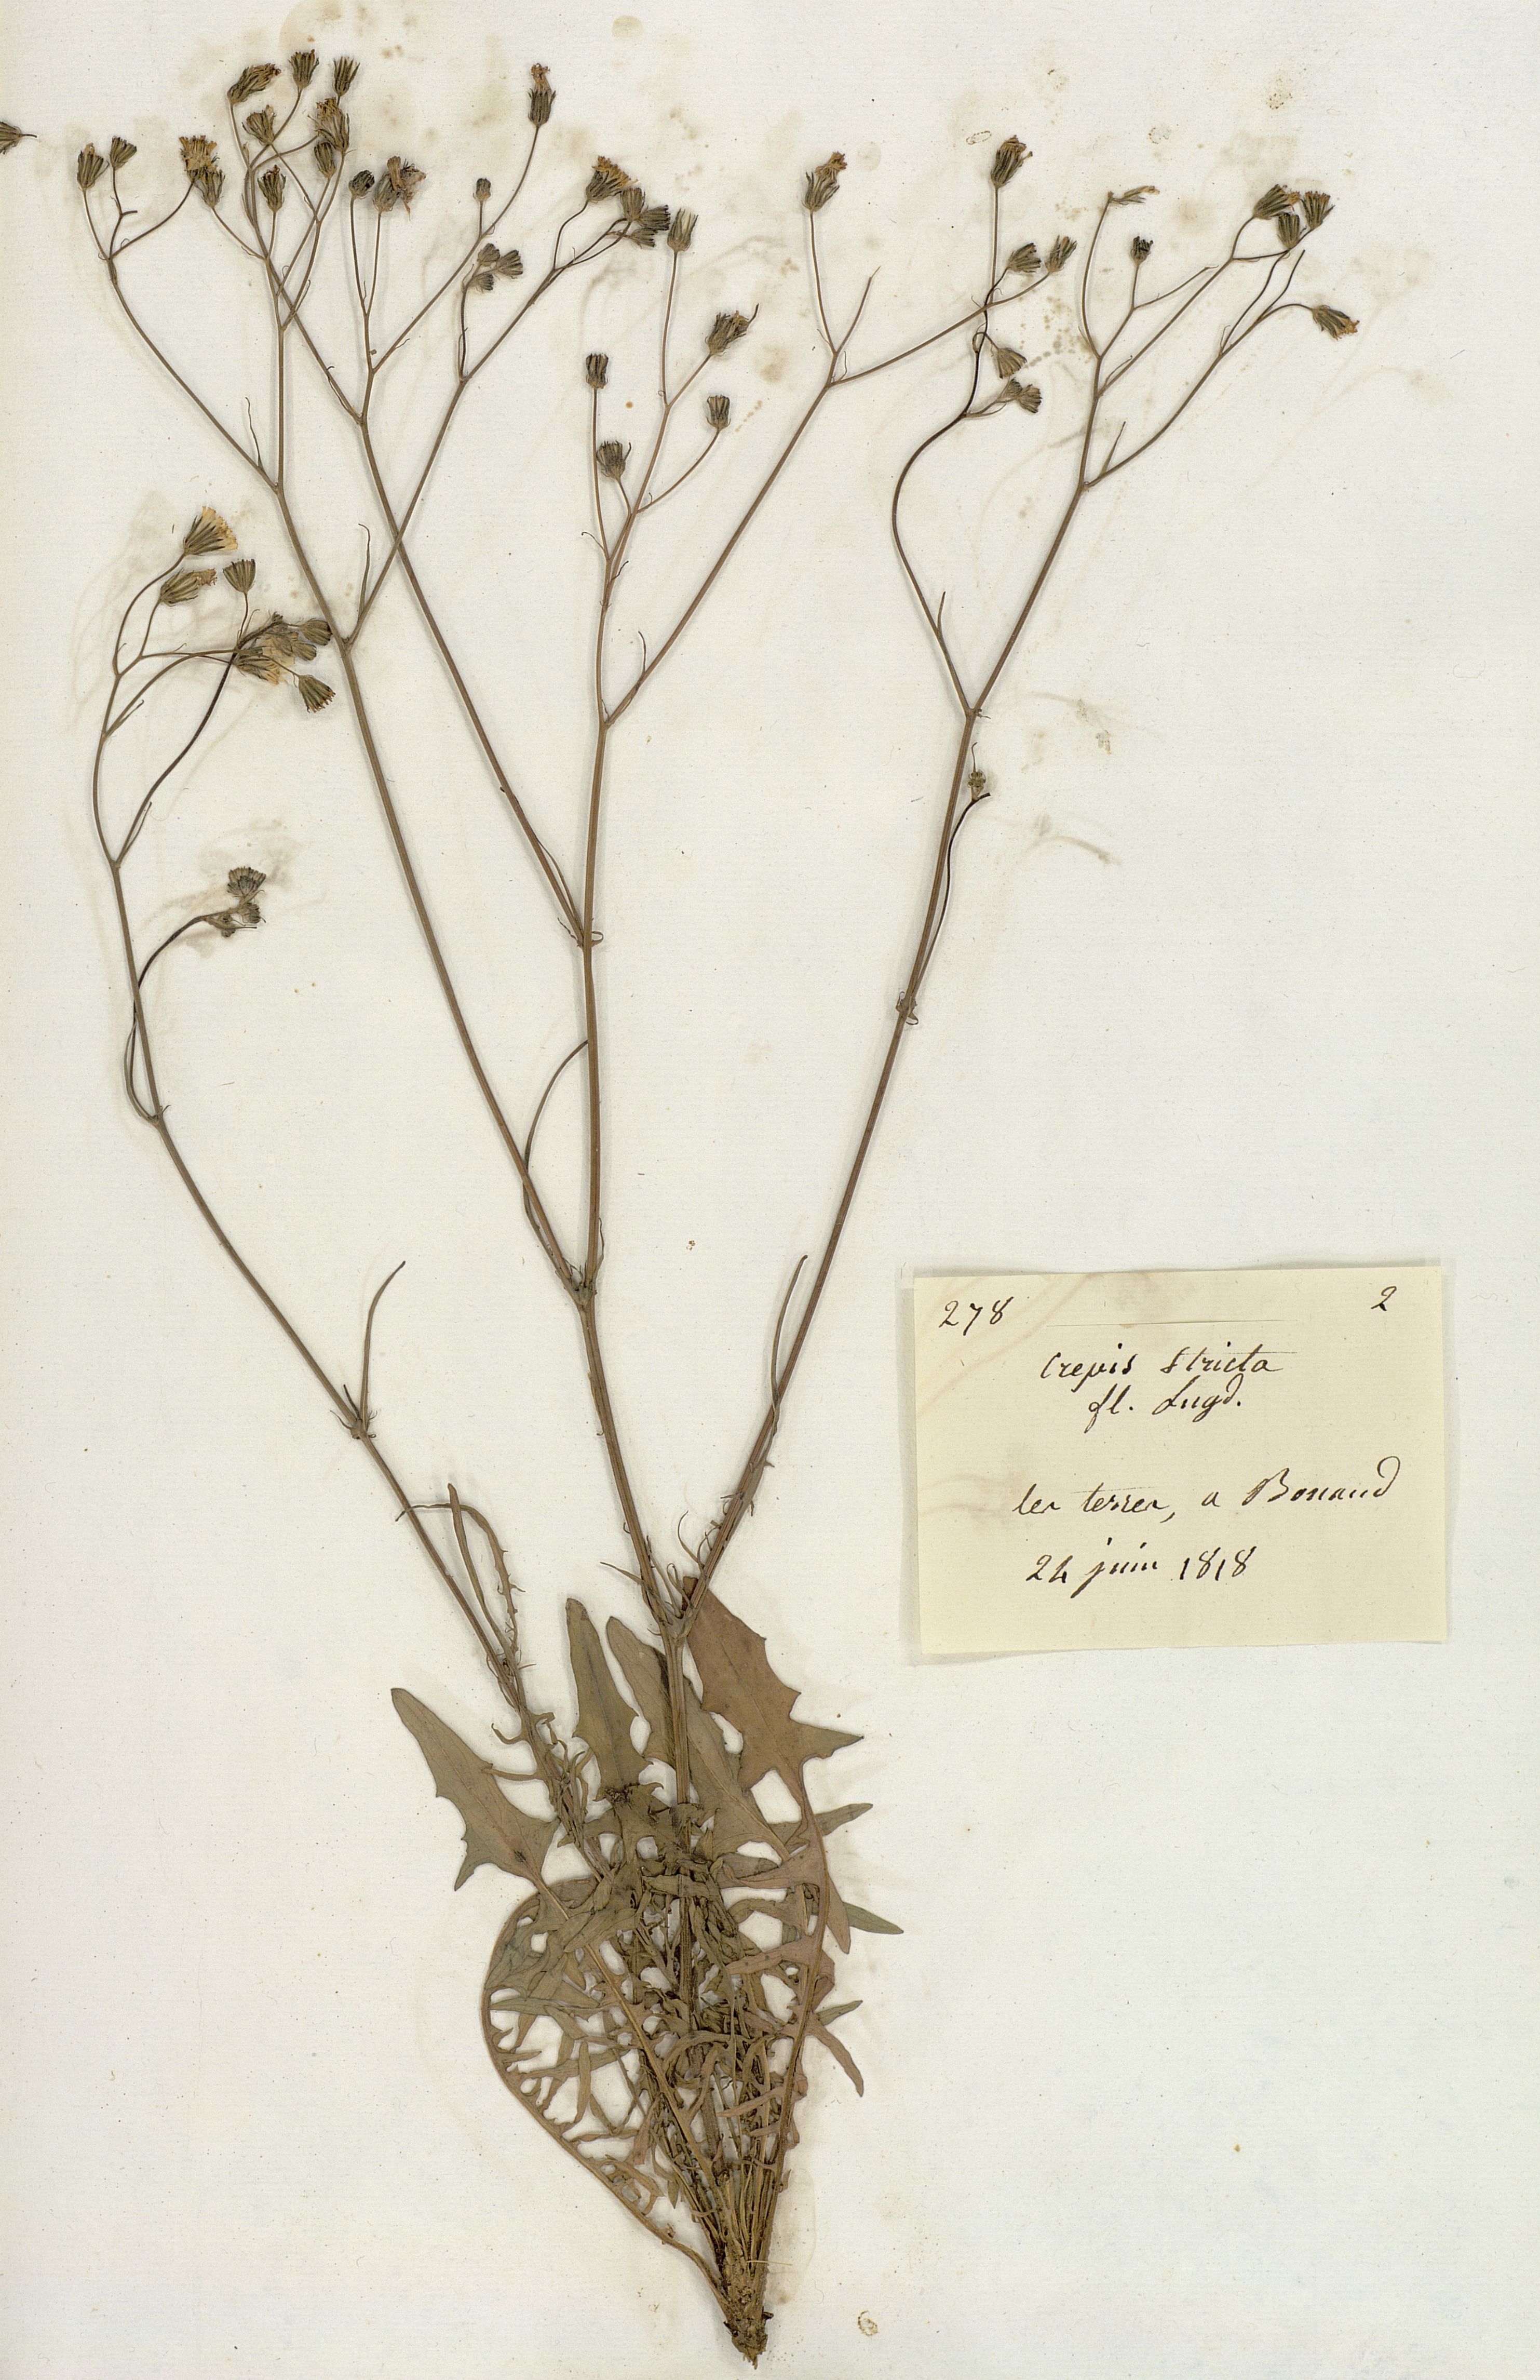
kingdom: Plantae
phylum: Tracheophyta
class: Magnoliopsida
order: Asterales
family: Asteraceae
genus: Crepis
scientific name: Crepis
